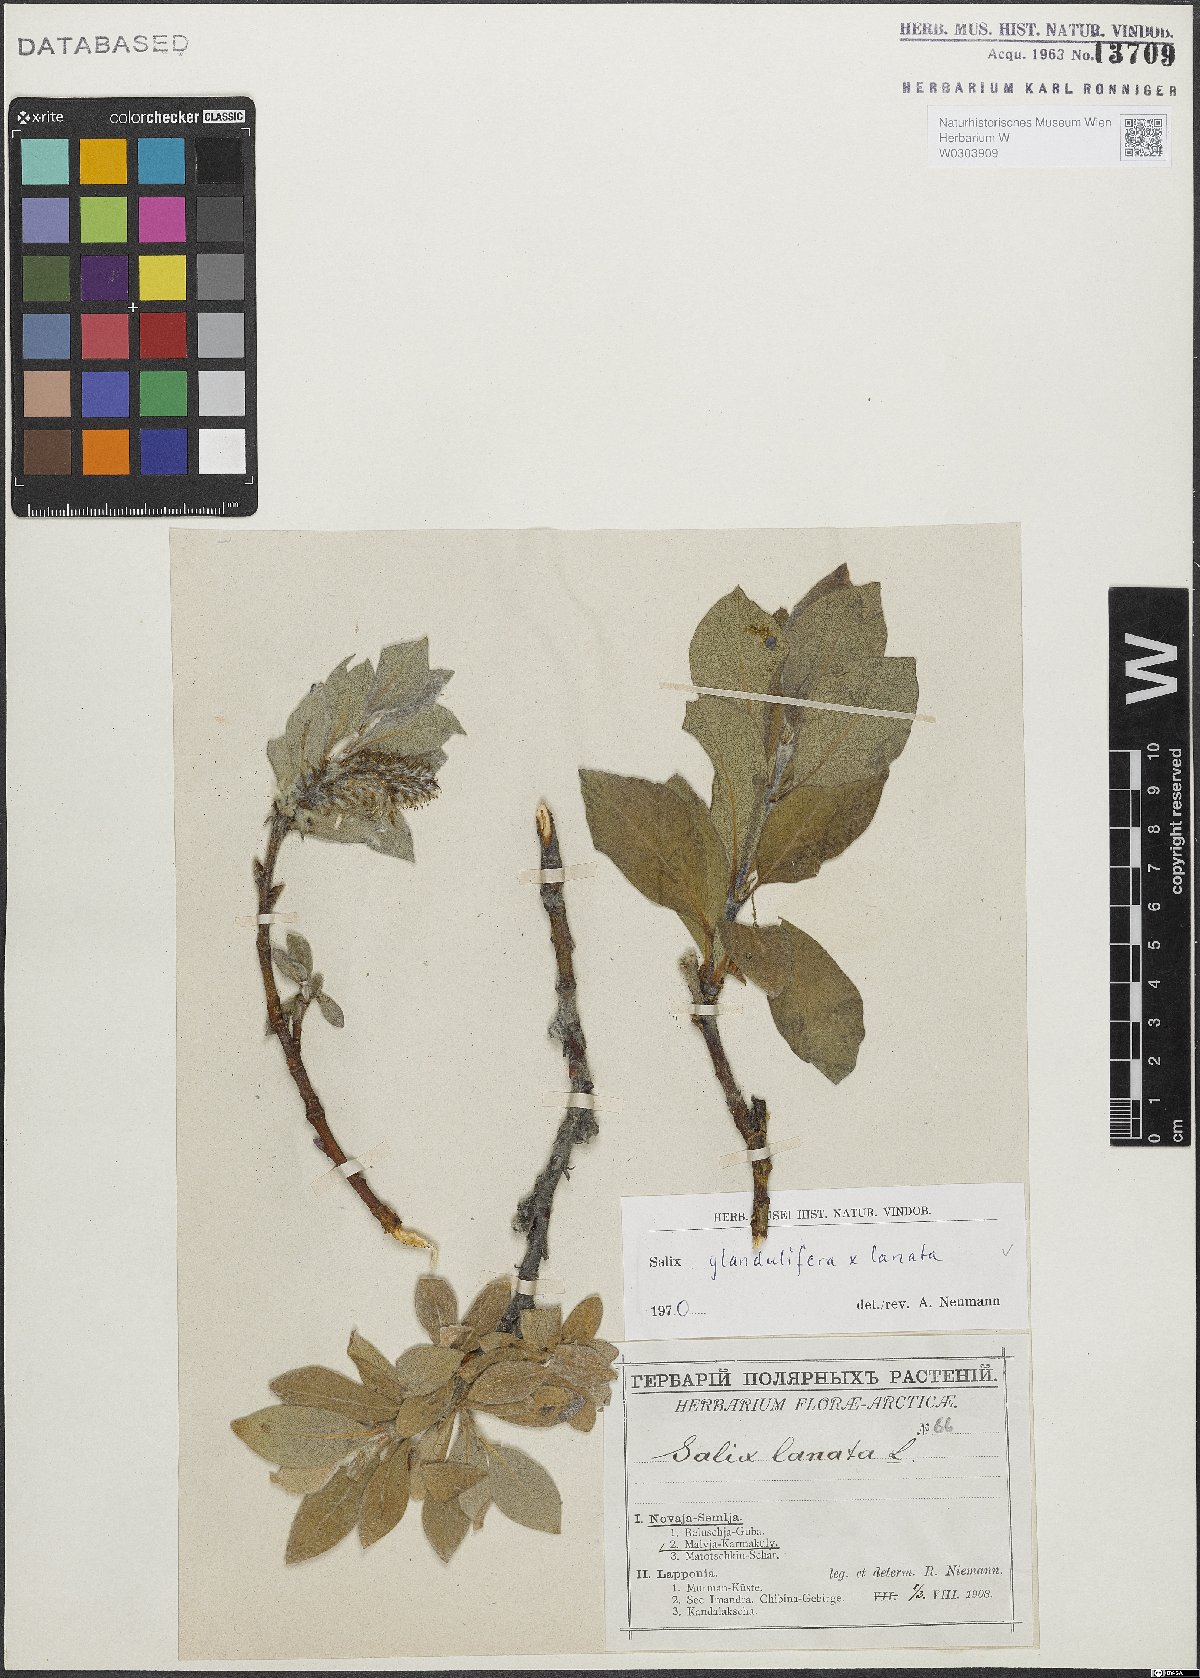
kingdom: Plantae
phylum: Tracheophyta
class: Magnoliopsida
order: Malpighiales
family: Salicaceae
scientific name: Salicaceae
